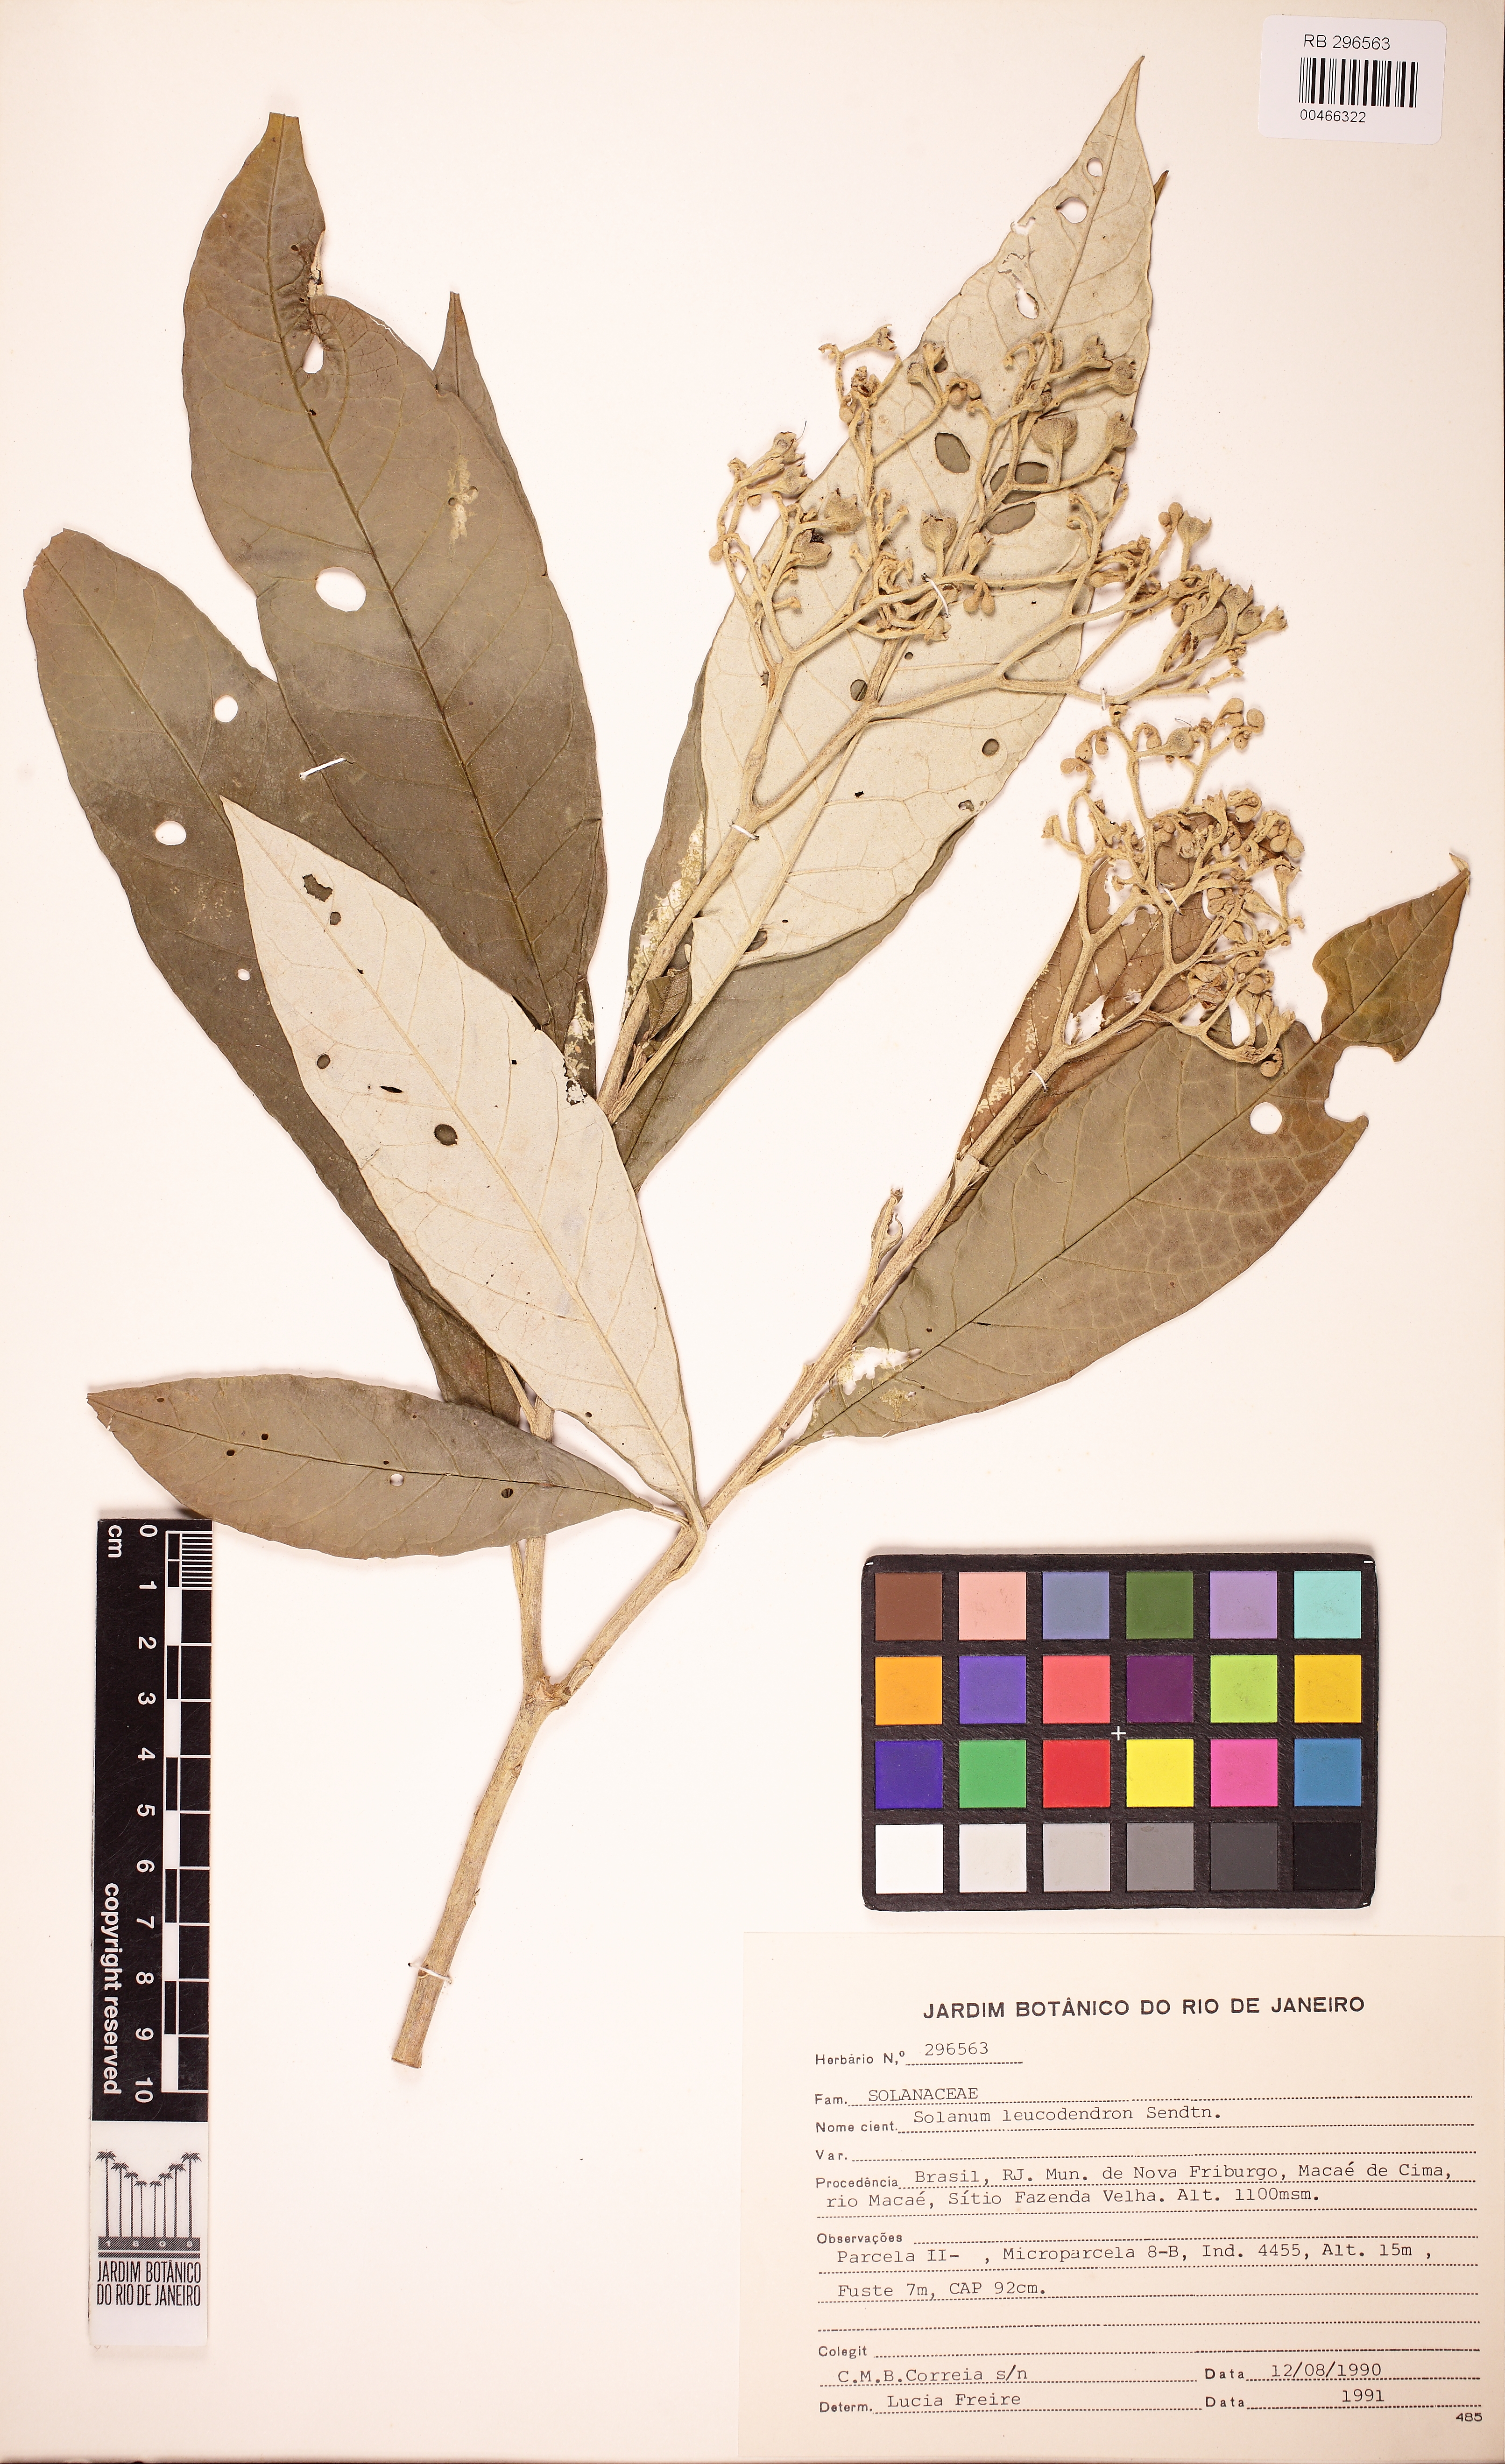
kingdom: Plantae
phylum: Tracheophyta
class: Magnoliopsida
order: Solanales
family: Solanaceae
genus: Solanum
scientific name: Solanum leucodendron
